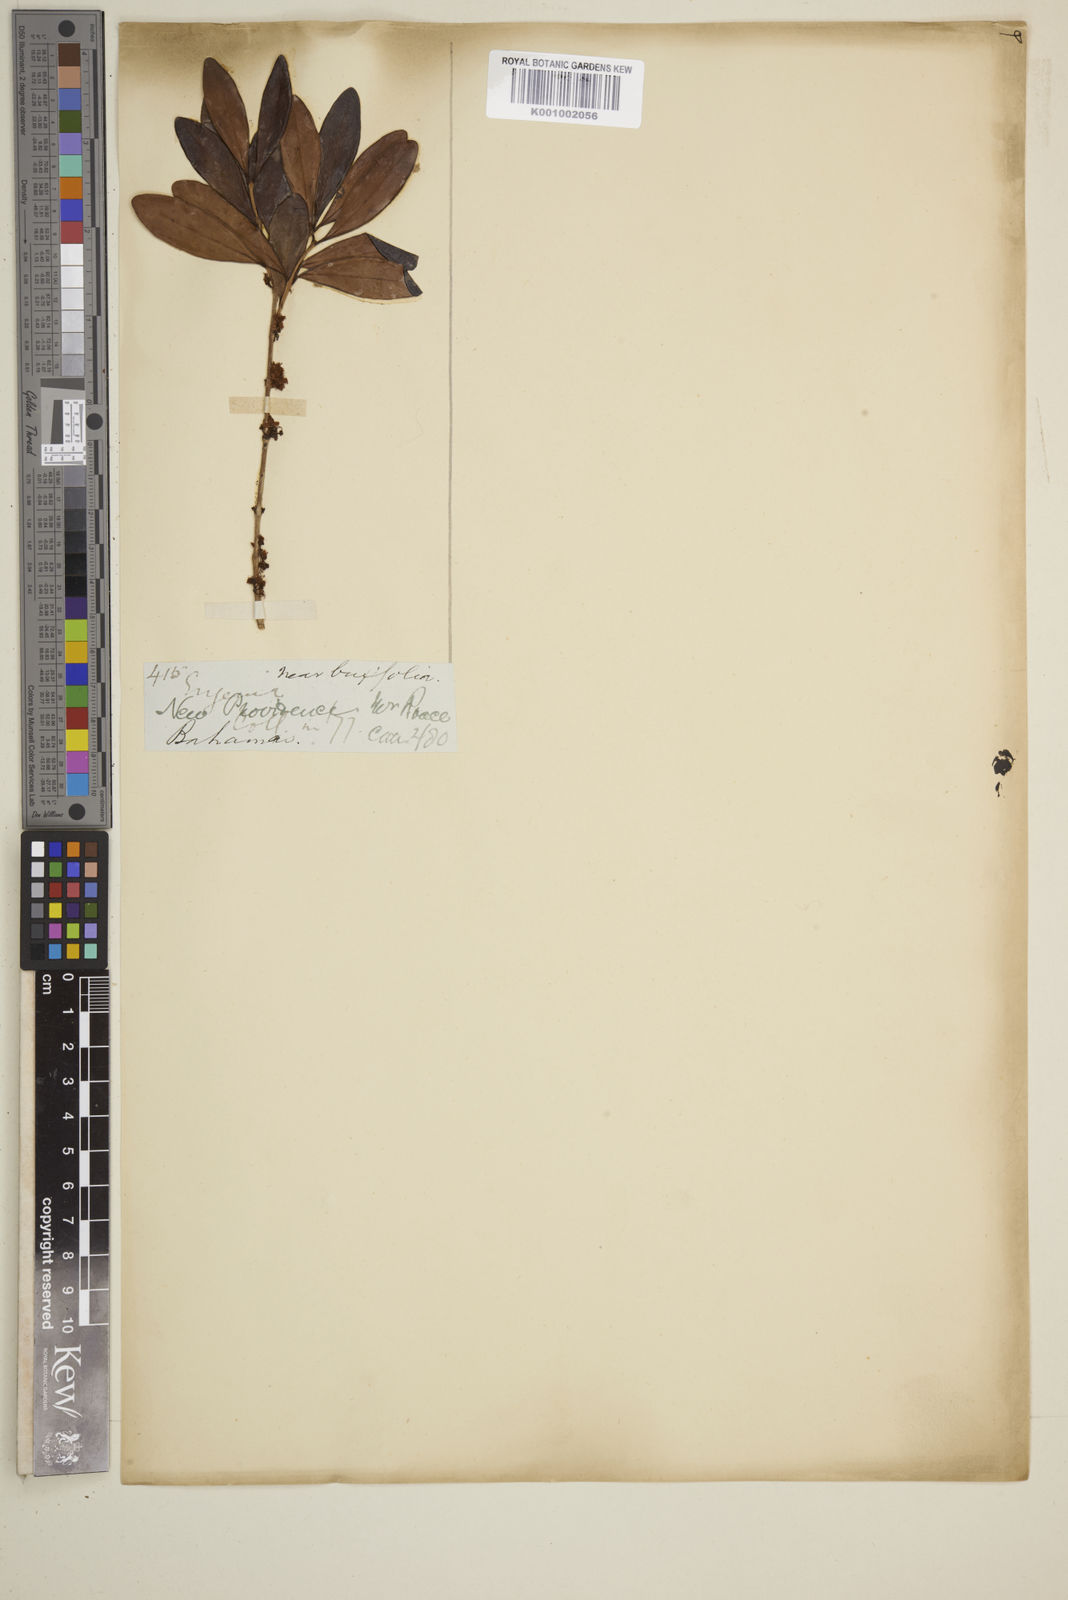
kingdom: Plantae
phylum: Tracheophyta
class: Magnoliopsida
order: Myrtales
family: Myrtaceae
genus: Eugenia
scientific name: Eugenia buxifolia
